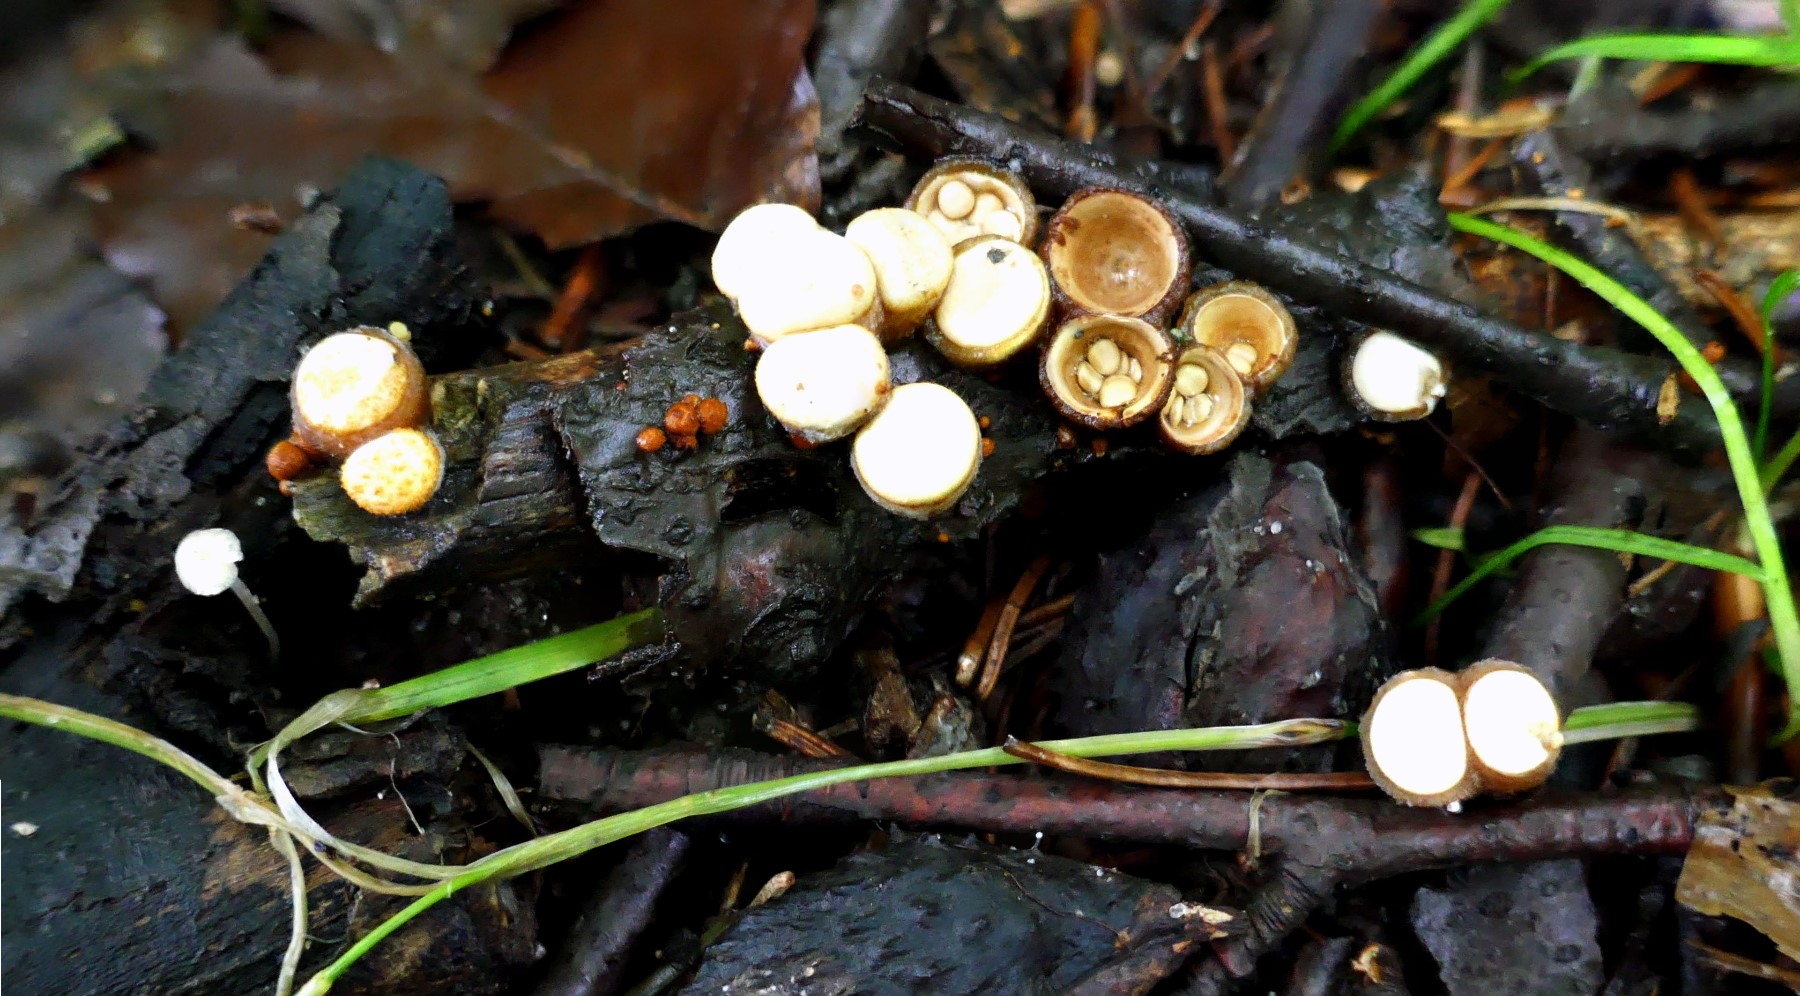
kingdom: Fungi
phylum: Basidiomycota
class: Agaricomycetes
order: Agaricales
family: Nidulariaceae
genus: Crucibulum
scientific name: Crucibulum crucibuliforme
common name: krukkesvamp
